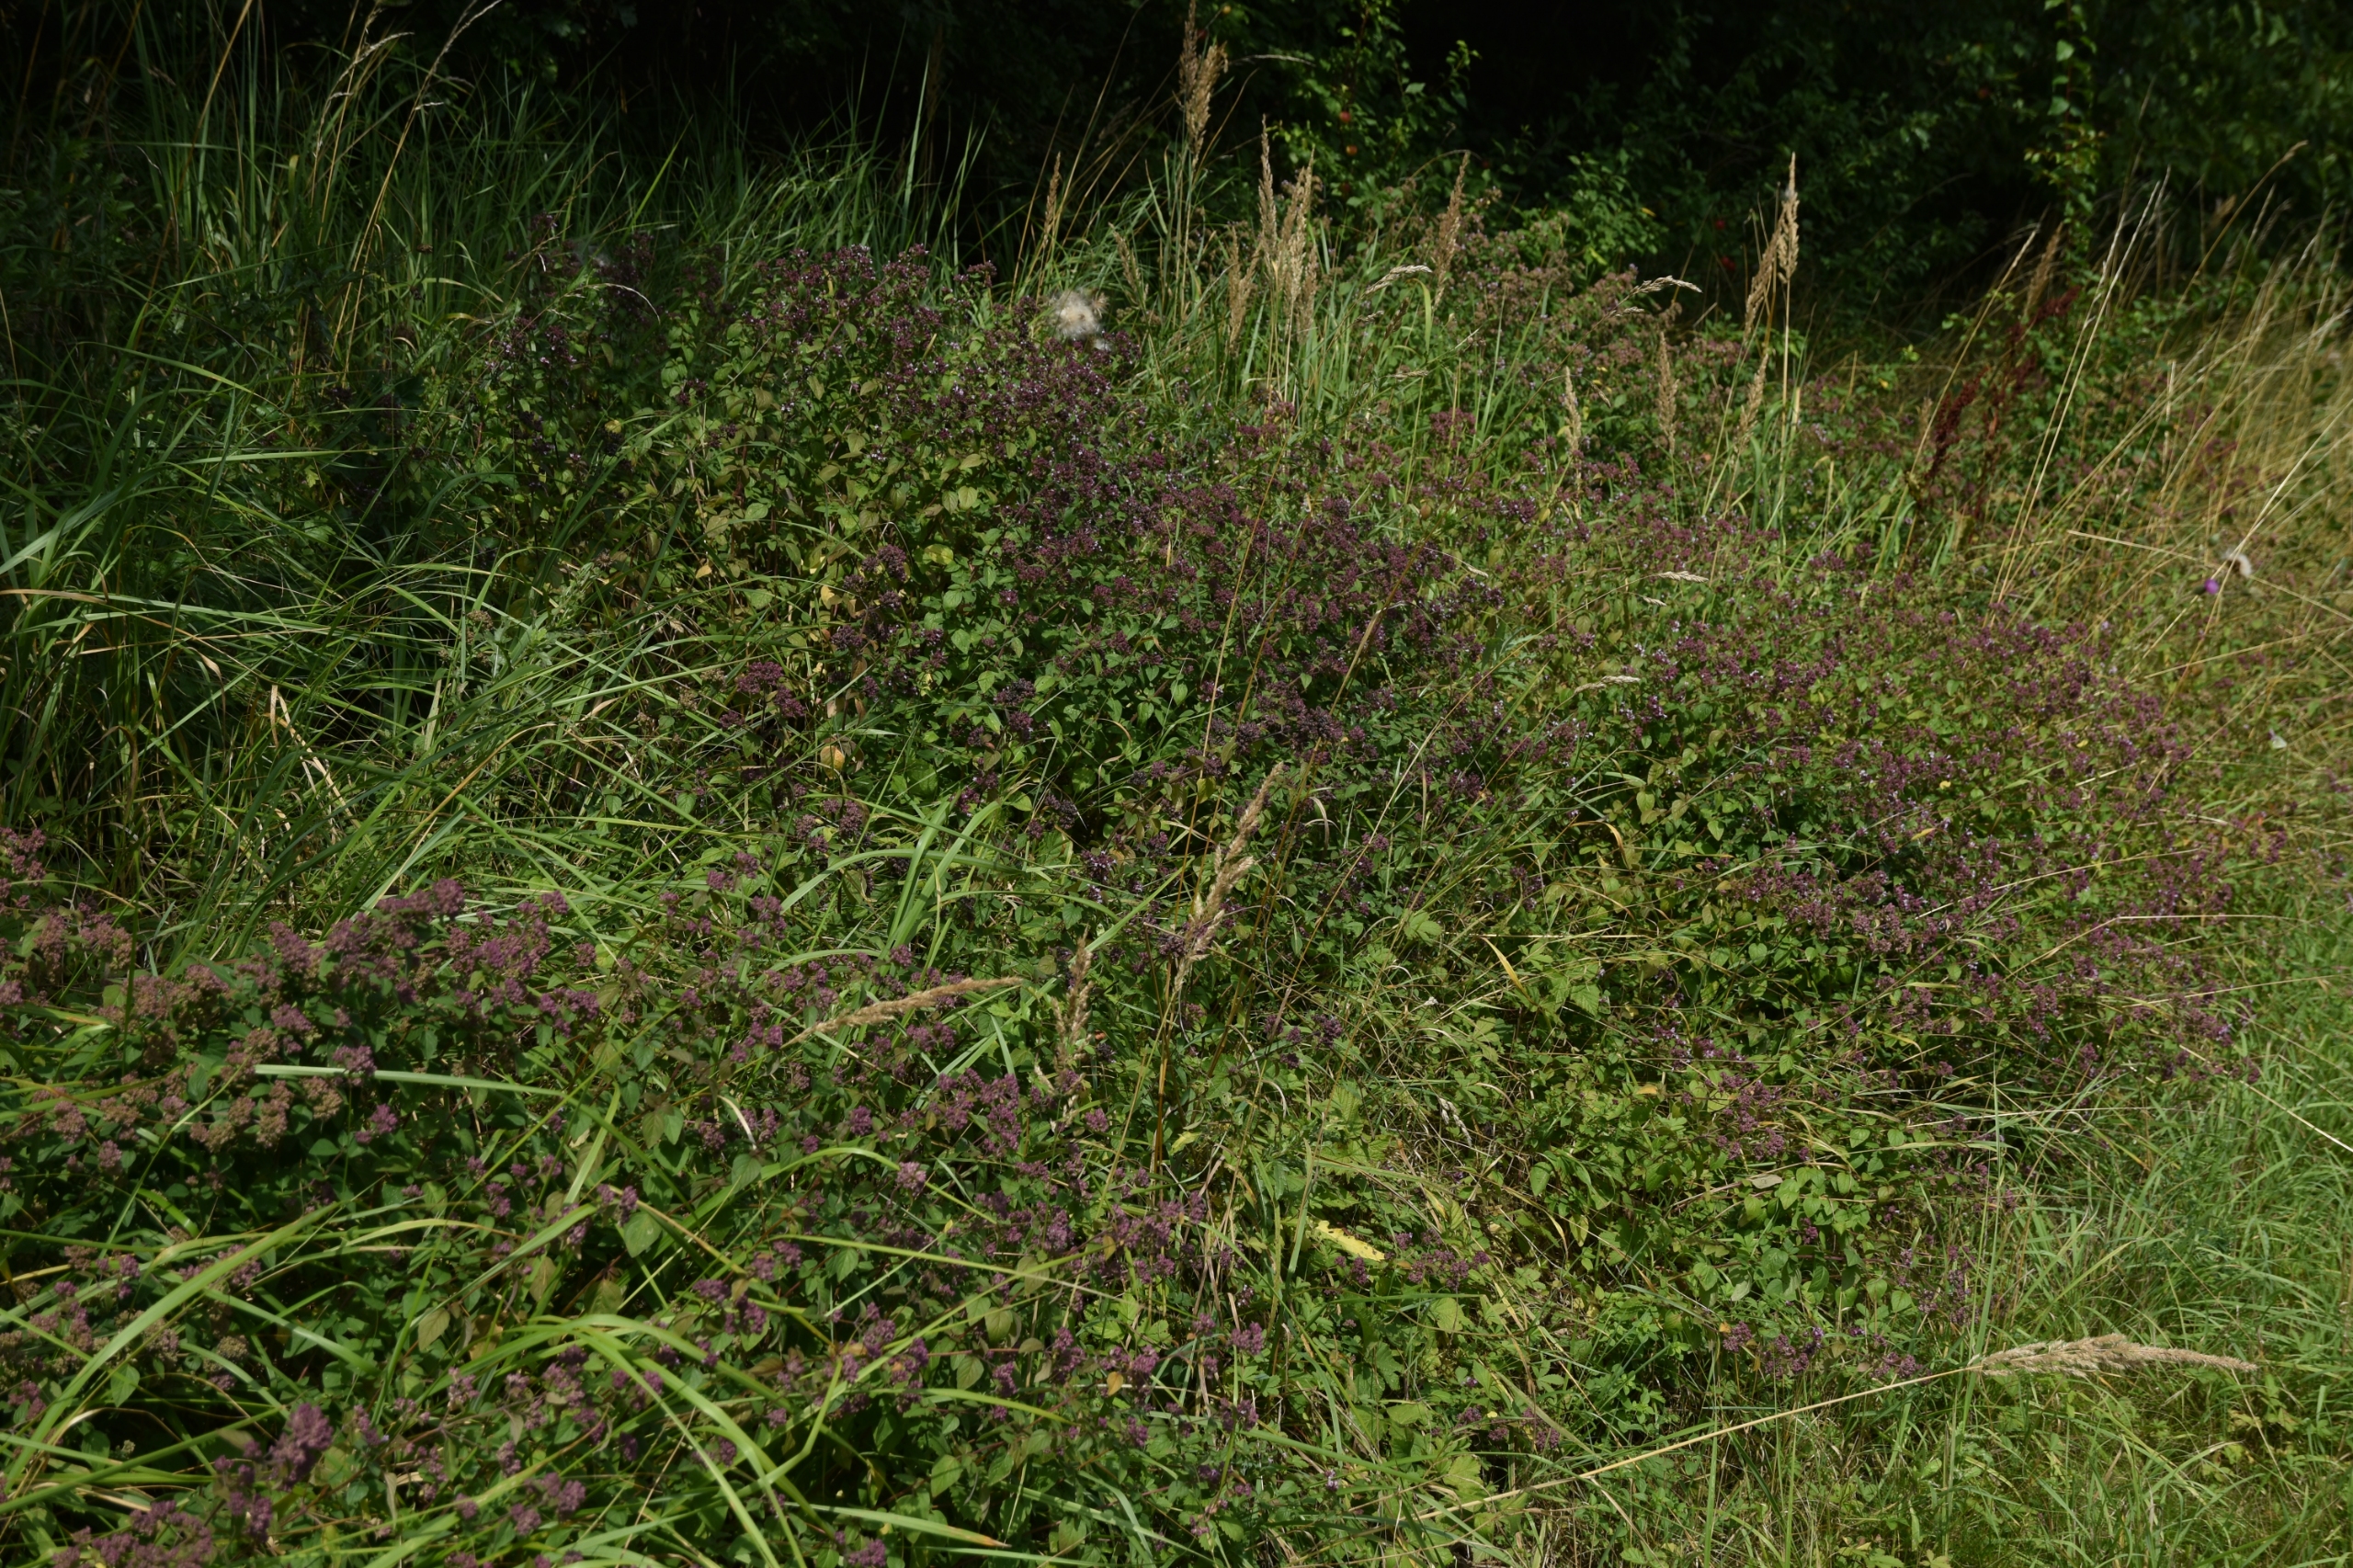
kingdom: Plantae
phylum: Tracheophyta
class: Magnoliopsida
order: Lamiales
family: Lamiaceae
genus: Origanum
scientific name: Origanum vulgare
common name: Merian
